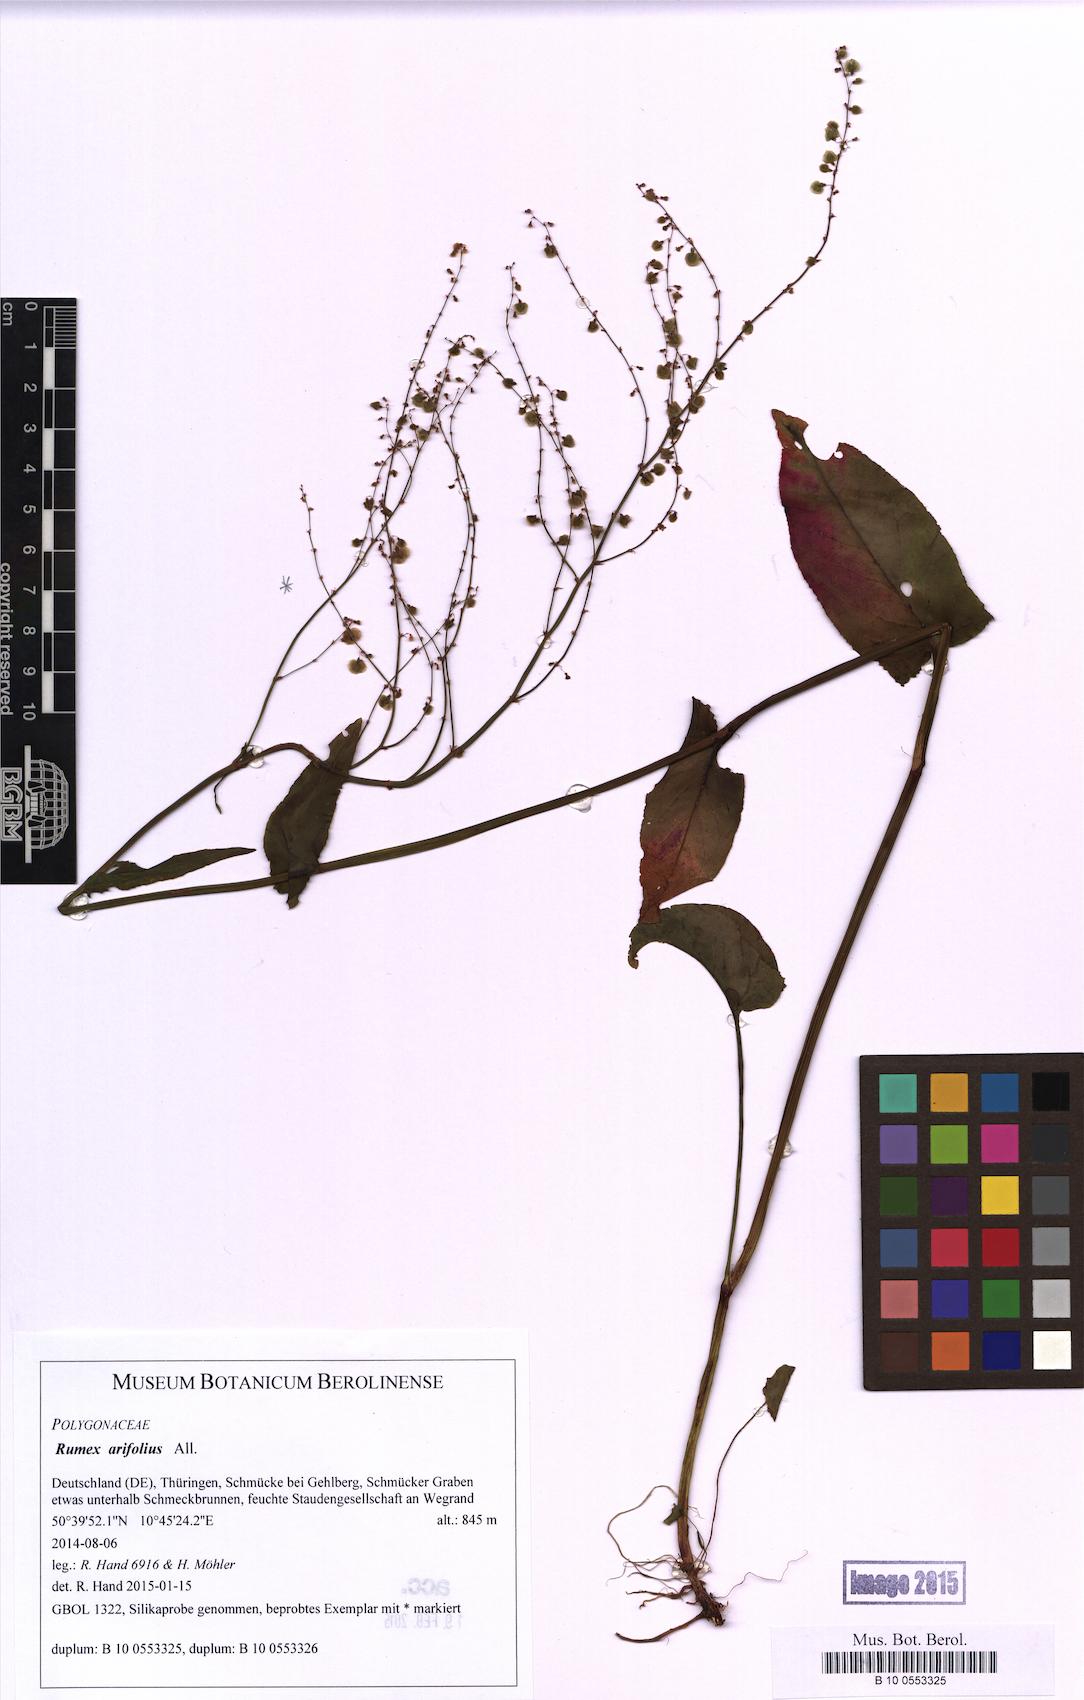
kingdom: Plantae
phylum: Tracheophyta
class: Magnoliopsida
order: Caryophyllales
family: Polygonaceae
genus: Rumex
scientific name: Rumex arifolius
